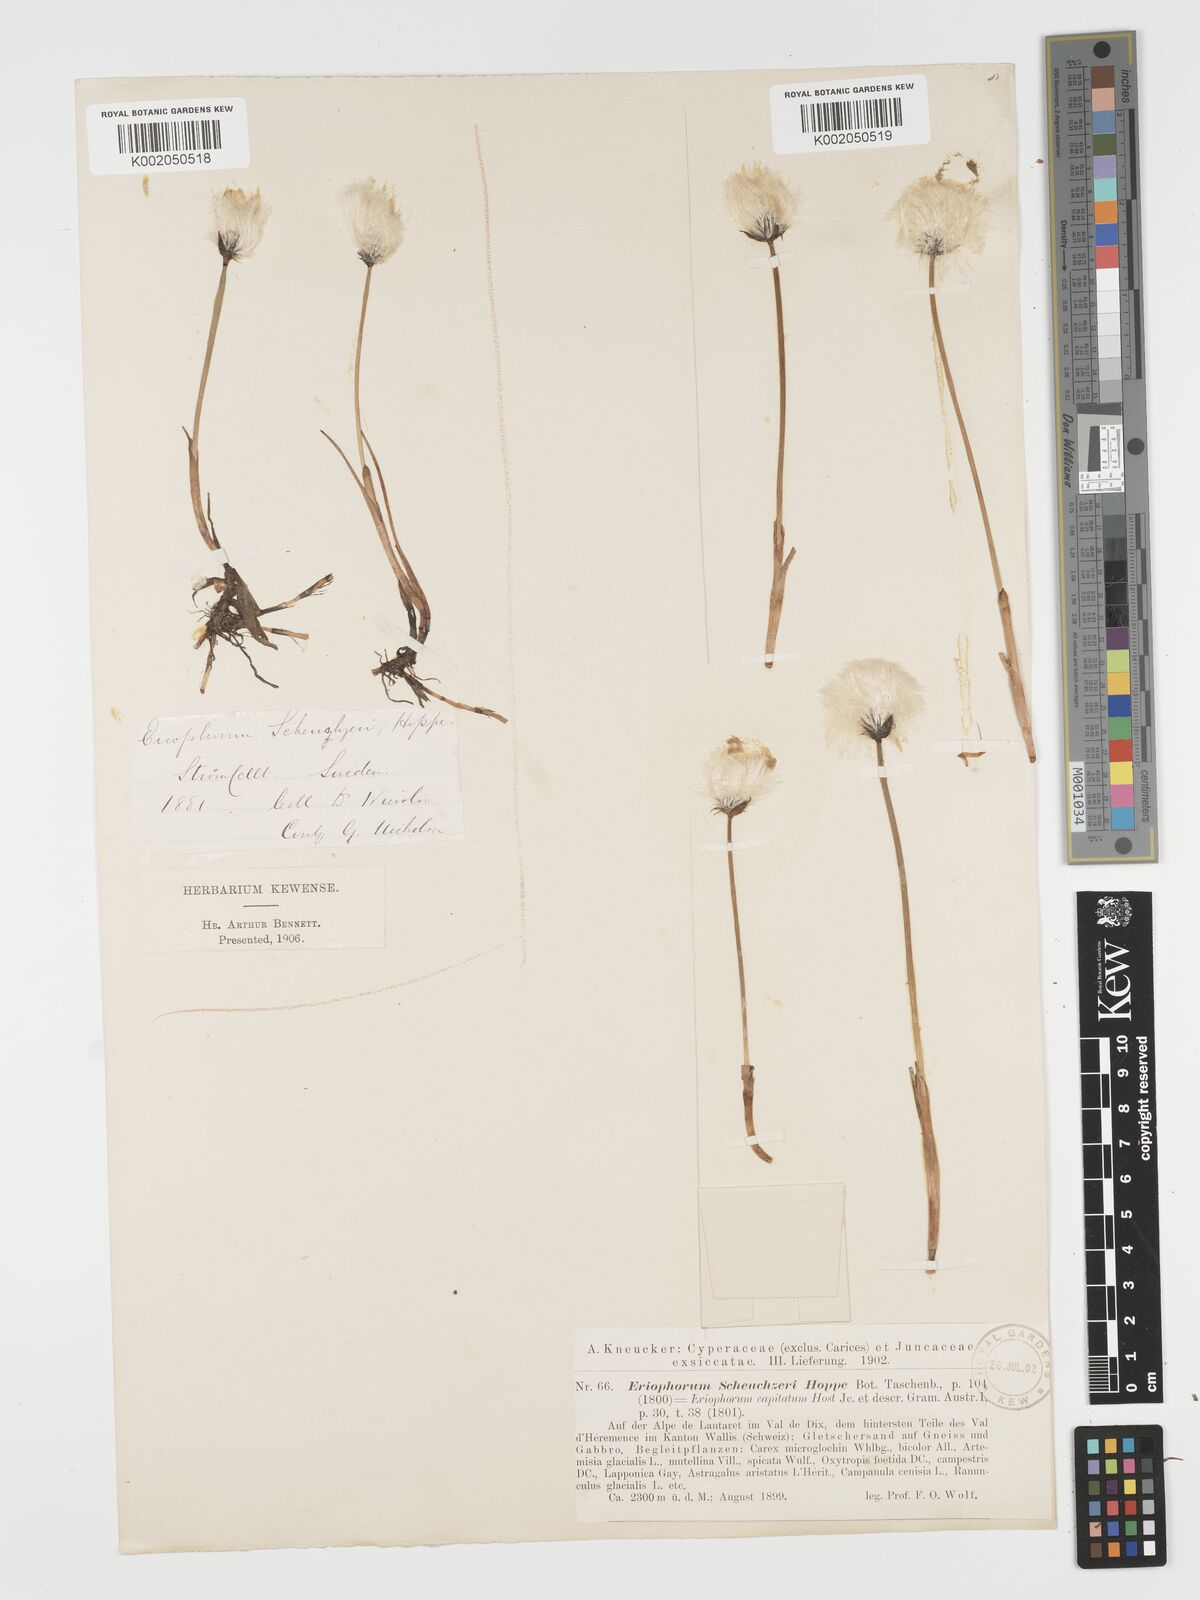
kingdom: Plantae
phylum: Tracheophyta
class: Liliopsida
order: Poales
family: Cyperaceae
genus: Eriophorum
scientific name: Eriophorum scheuchzeri
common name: Scheuchzer's cottongrass
